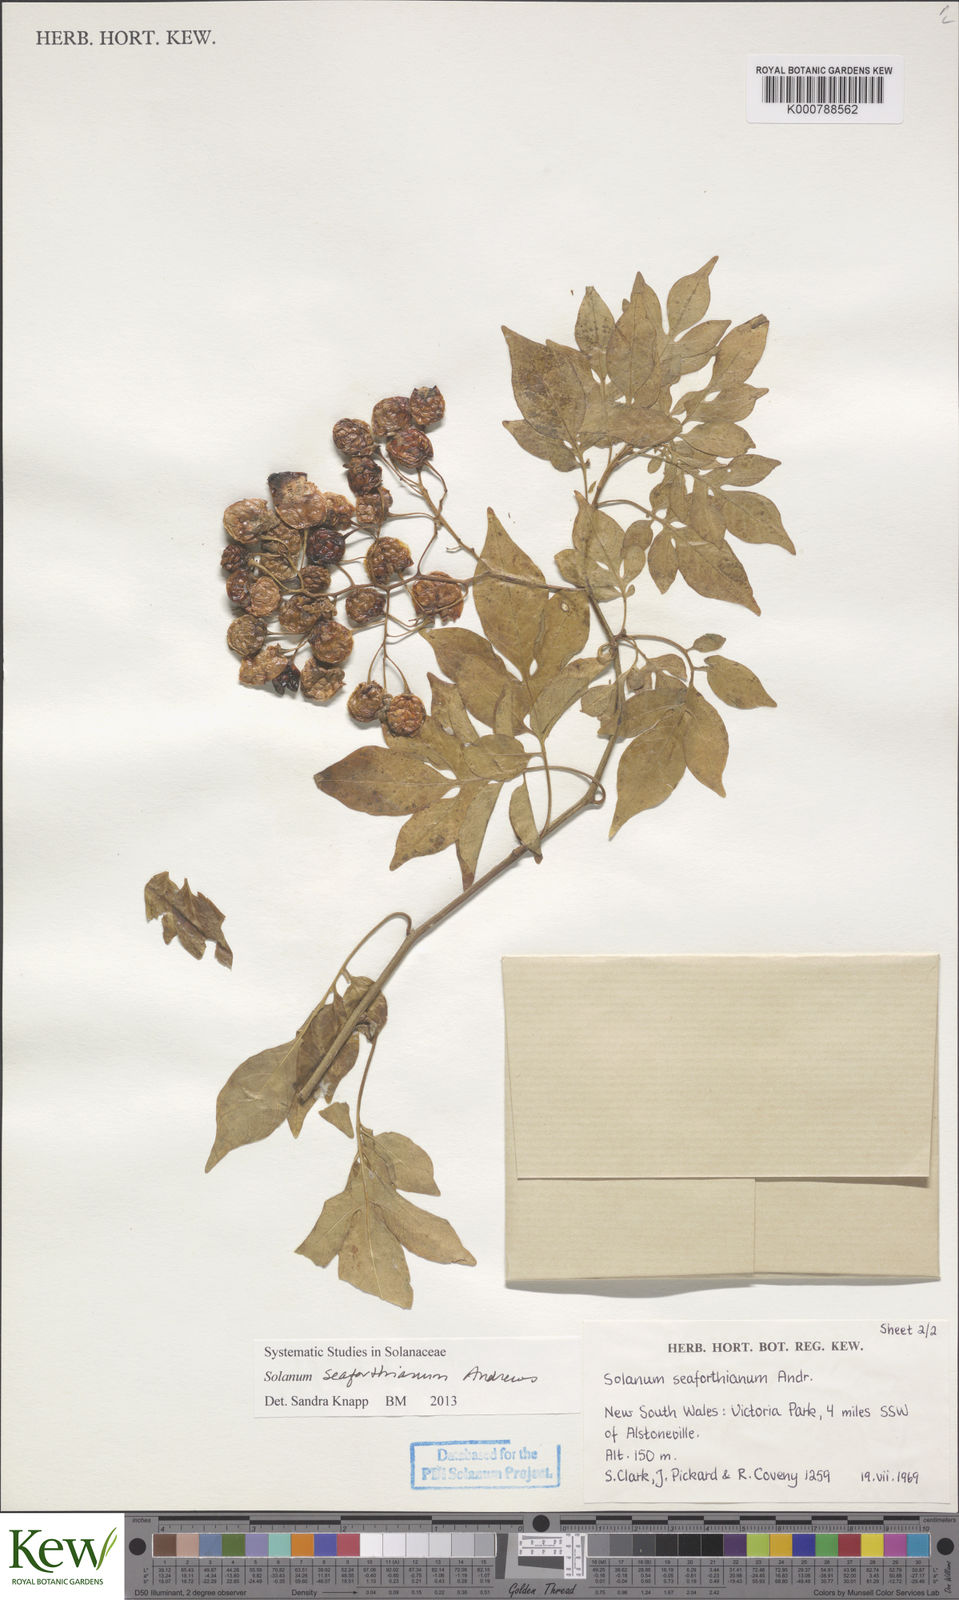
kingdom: Plantae
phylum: Tracheophyta
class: Magnoliopsida
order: Solanales
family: Solanaceae
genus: Solanum
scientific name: Solanum seaforthianum
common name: Brazilian nightshade
